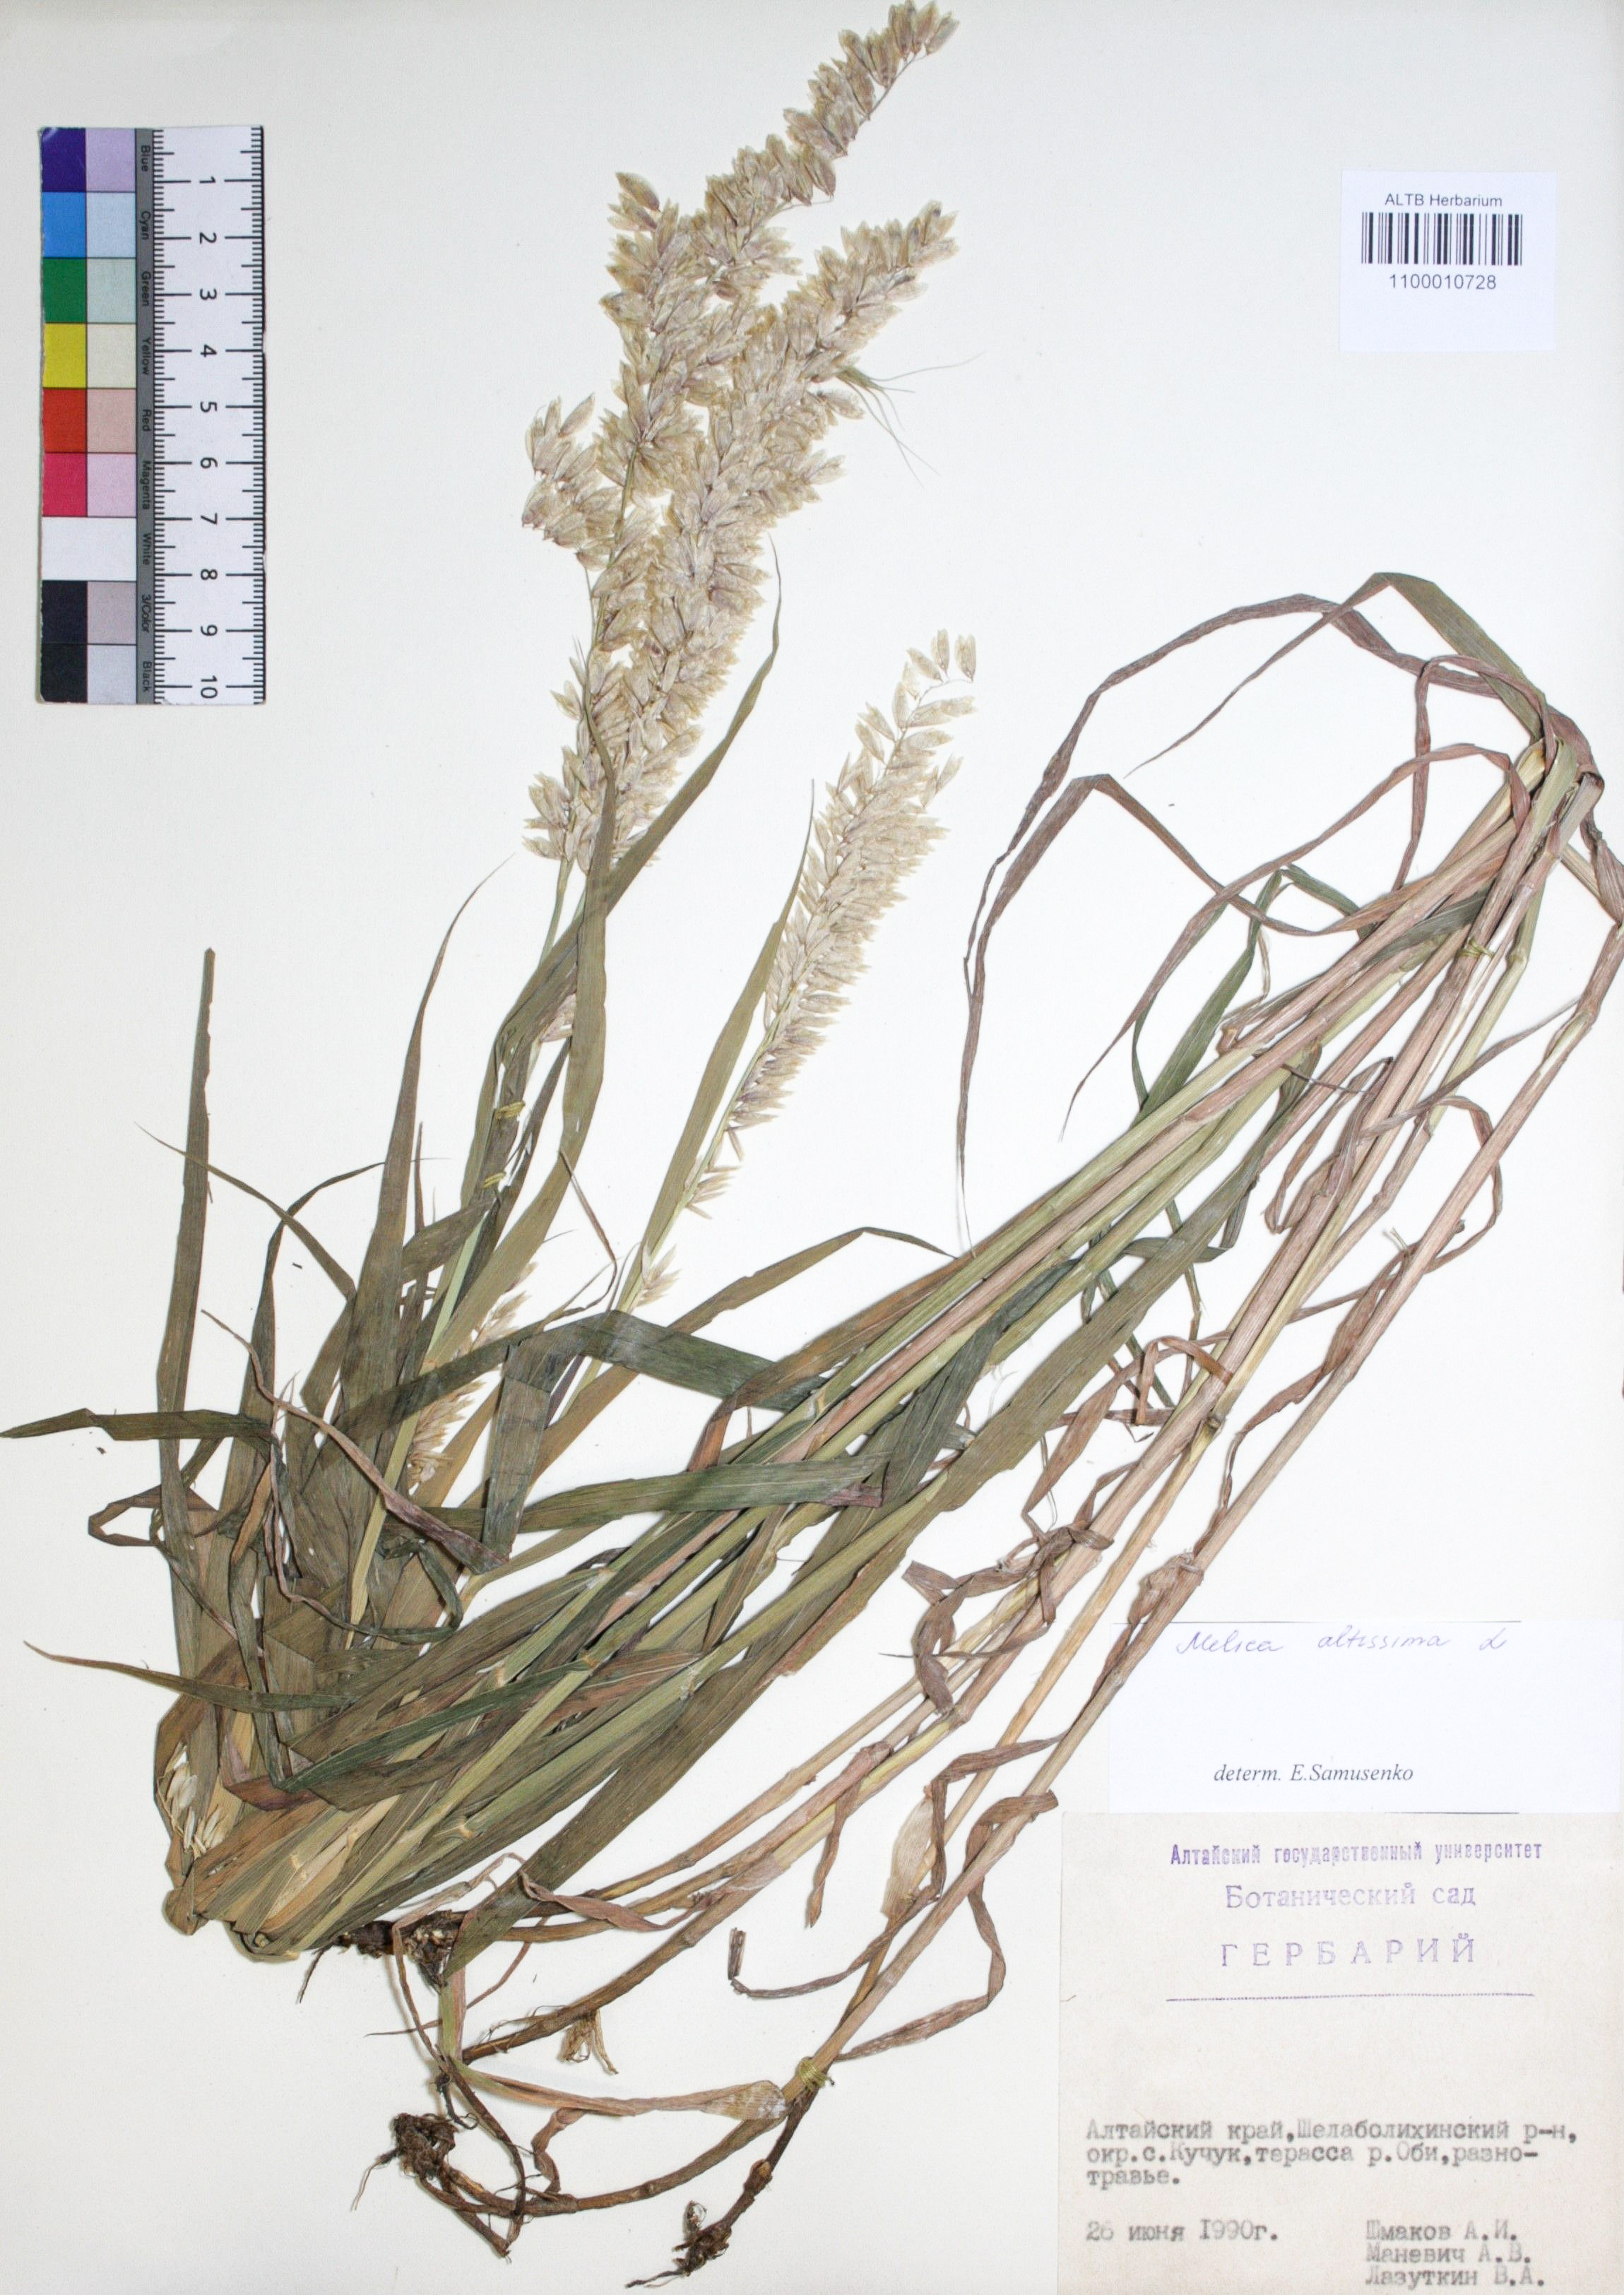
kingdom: Plantae
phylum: Tracheophyta
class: Liliopsida
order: Poales
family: Poaceae
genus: Melica
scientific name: Melica altissima
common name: Siberian melicgrass
